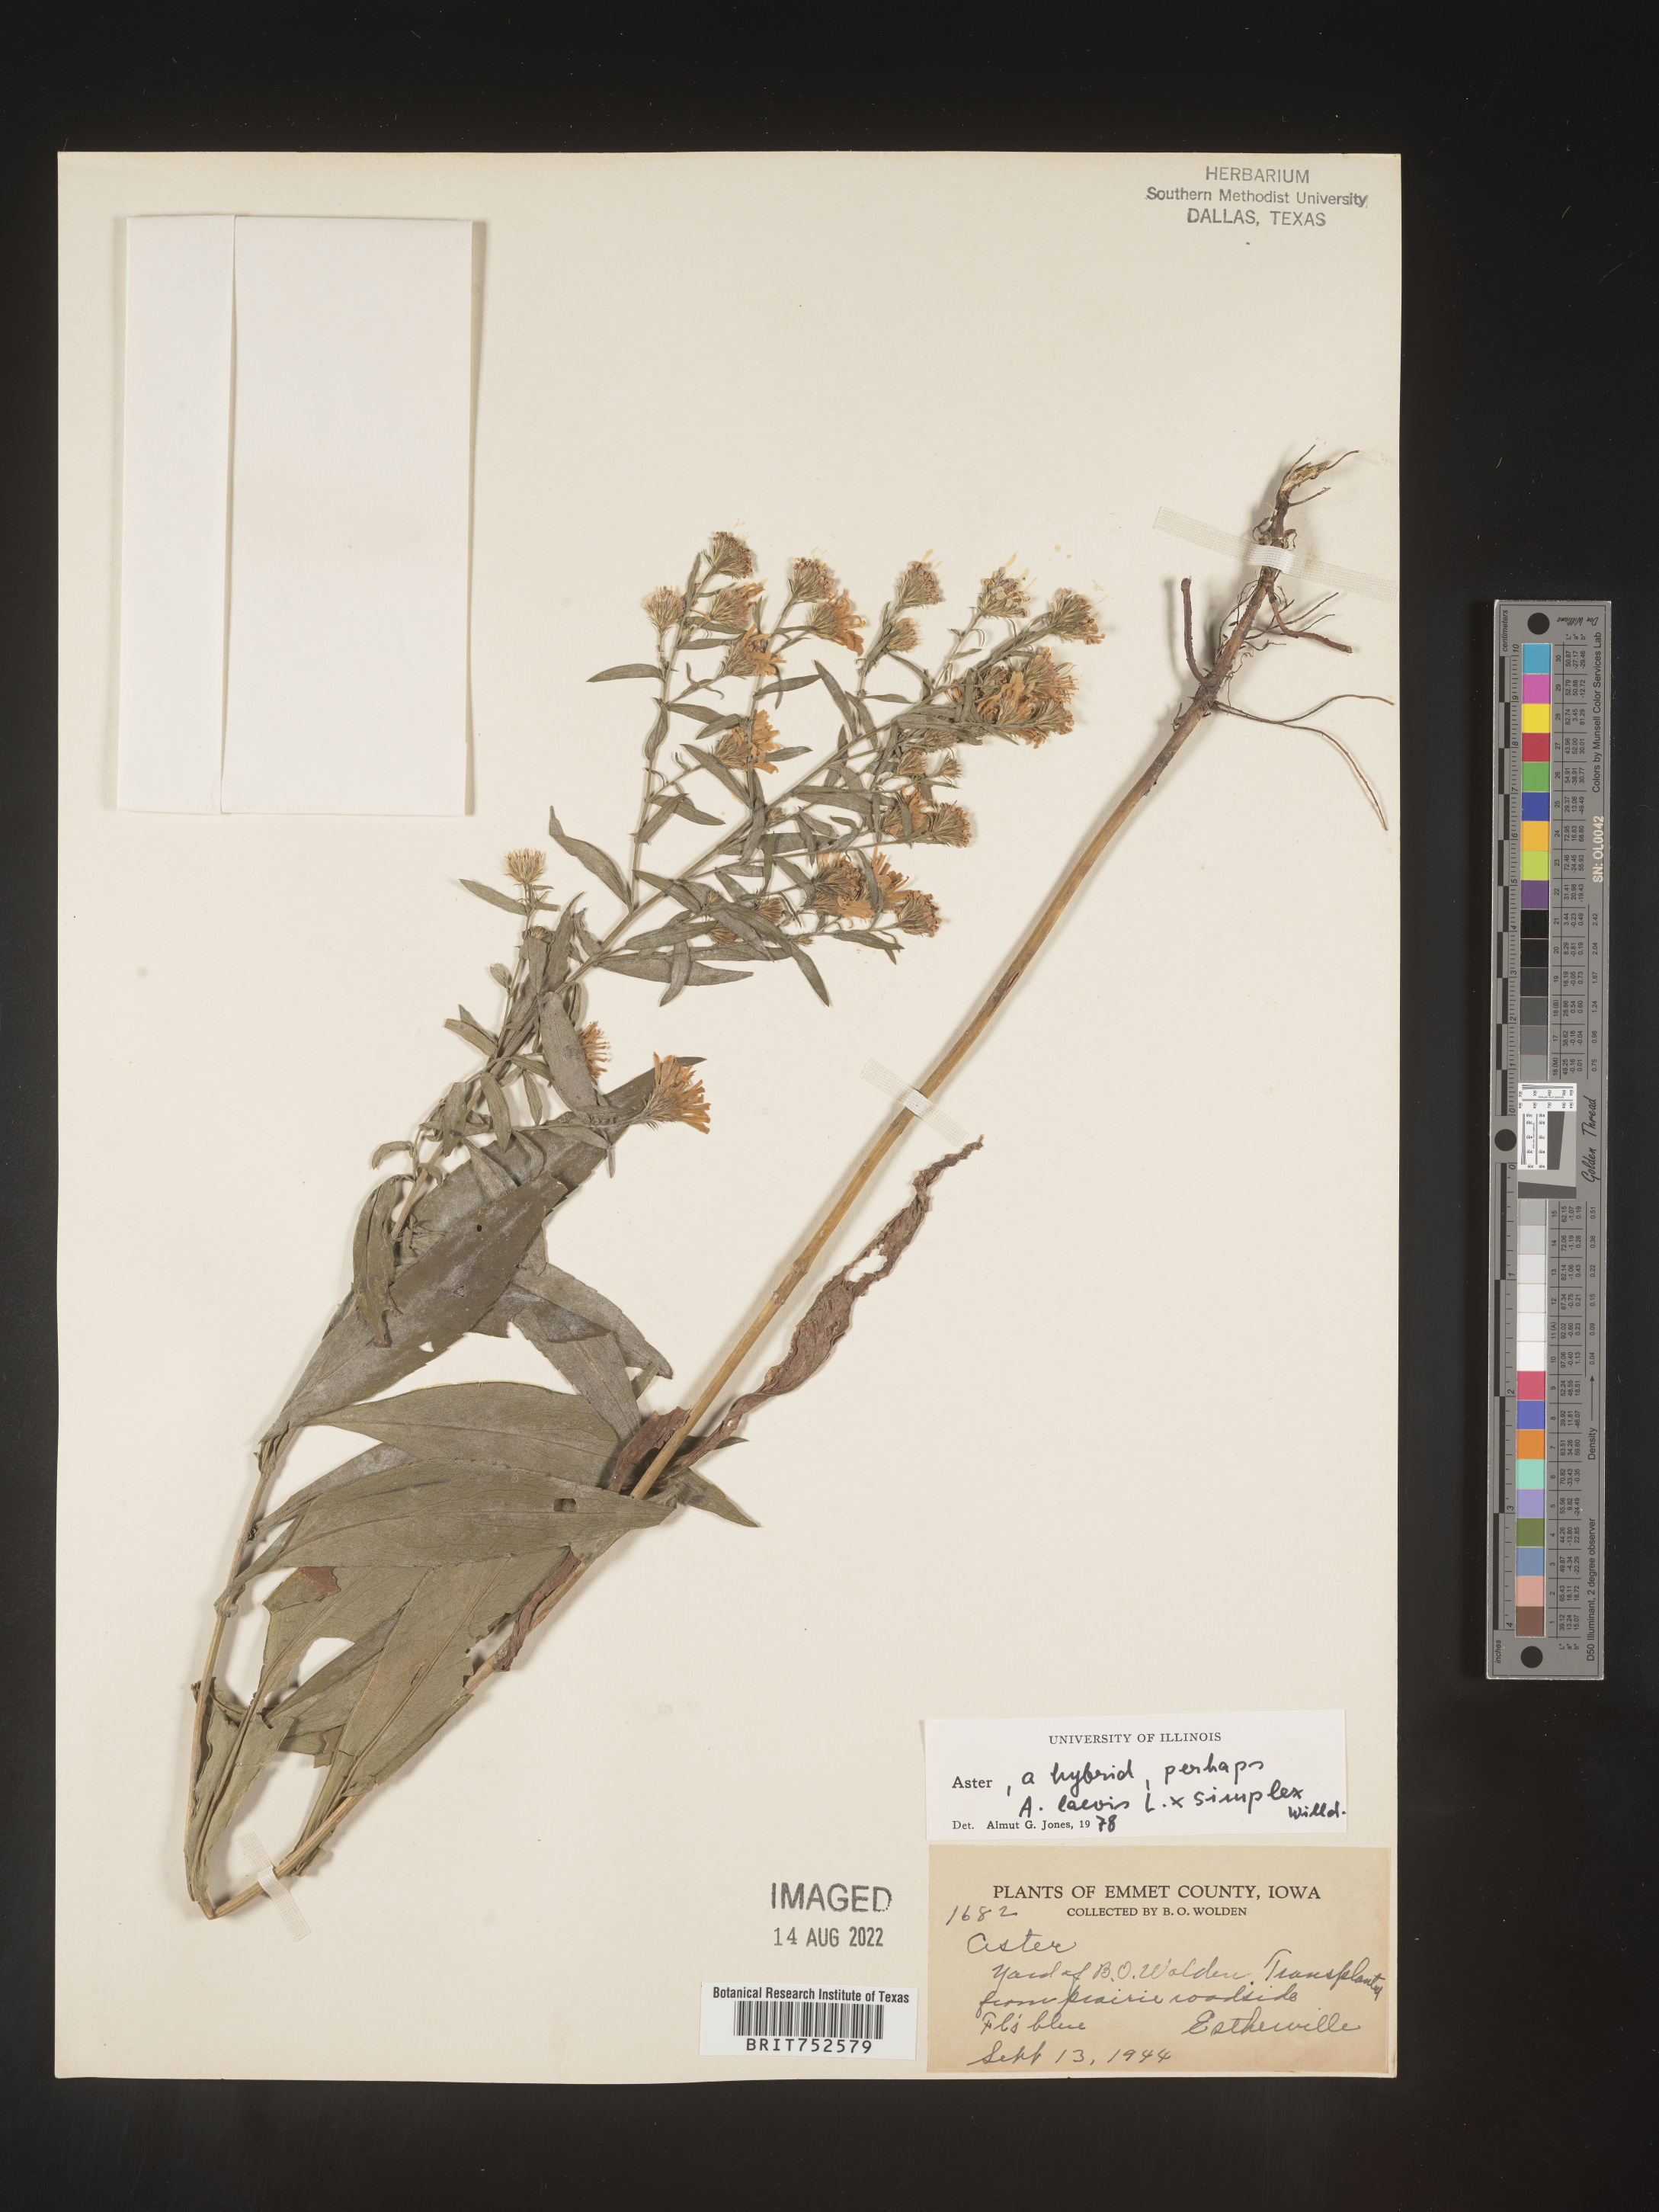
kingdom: Plantae
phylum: Tracheophyta
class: Magnoliopsida
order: Asterales
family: Asteraceae
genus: Symphyotrichum
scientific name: Symphyotrichum laeve
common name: Glaucous aster
